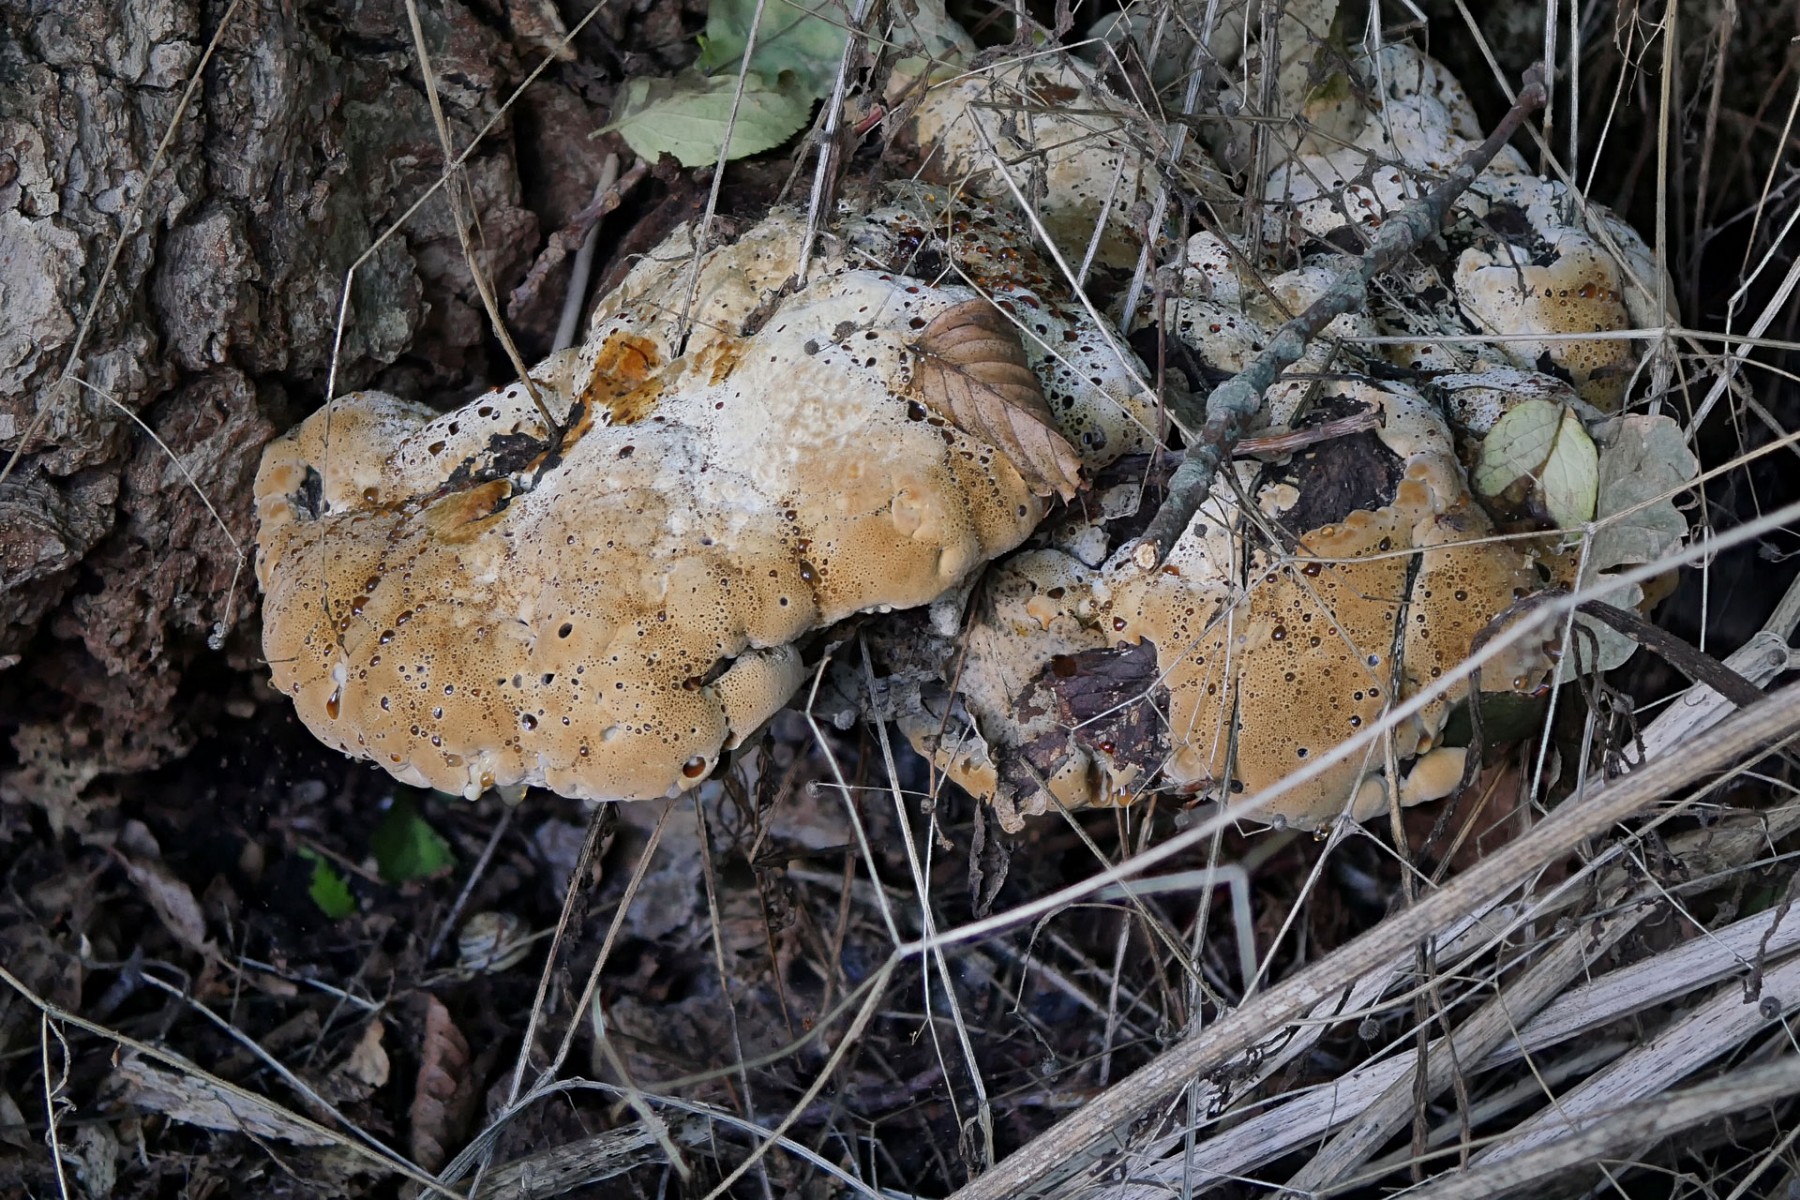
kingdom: Fungi
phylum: Basidiomycota
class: Agaricomycetes
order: Hymenochaetales
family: Hymenochaetaceae
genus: Pseudoinonotus
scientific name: Pseudoinonotus dryadeus
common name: ege-spejlporesvamp
